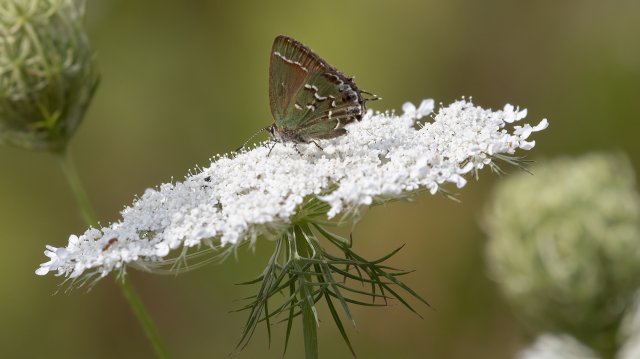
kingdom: Animalia
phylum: Arthropoda
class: Insecta
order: Lepidoptera
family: Lycaenidae
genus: Mitoura
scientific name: Mitoura gryneus
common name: Juniper Hairstreak
